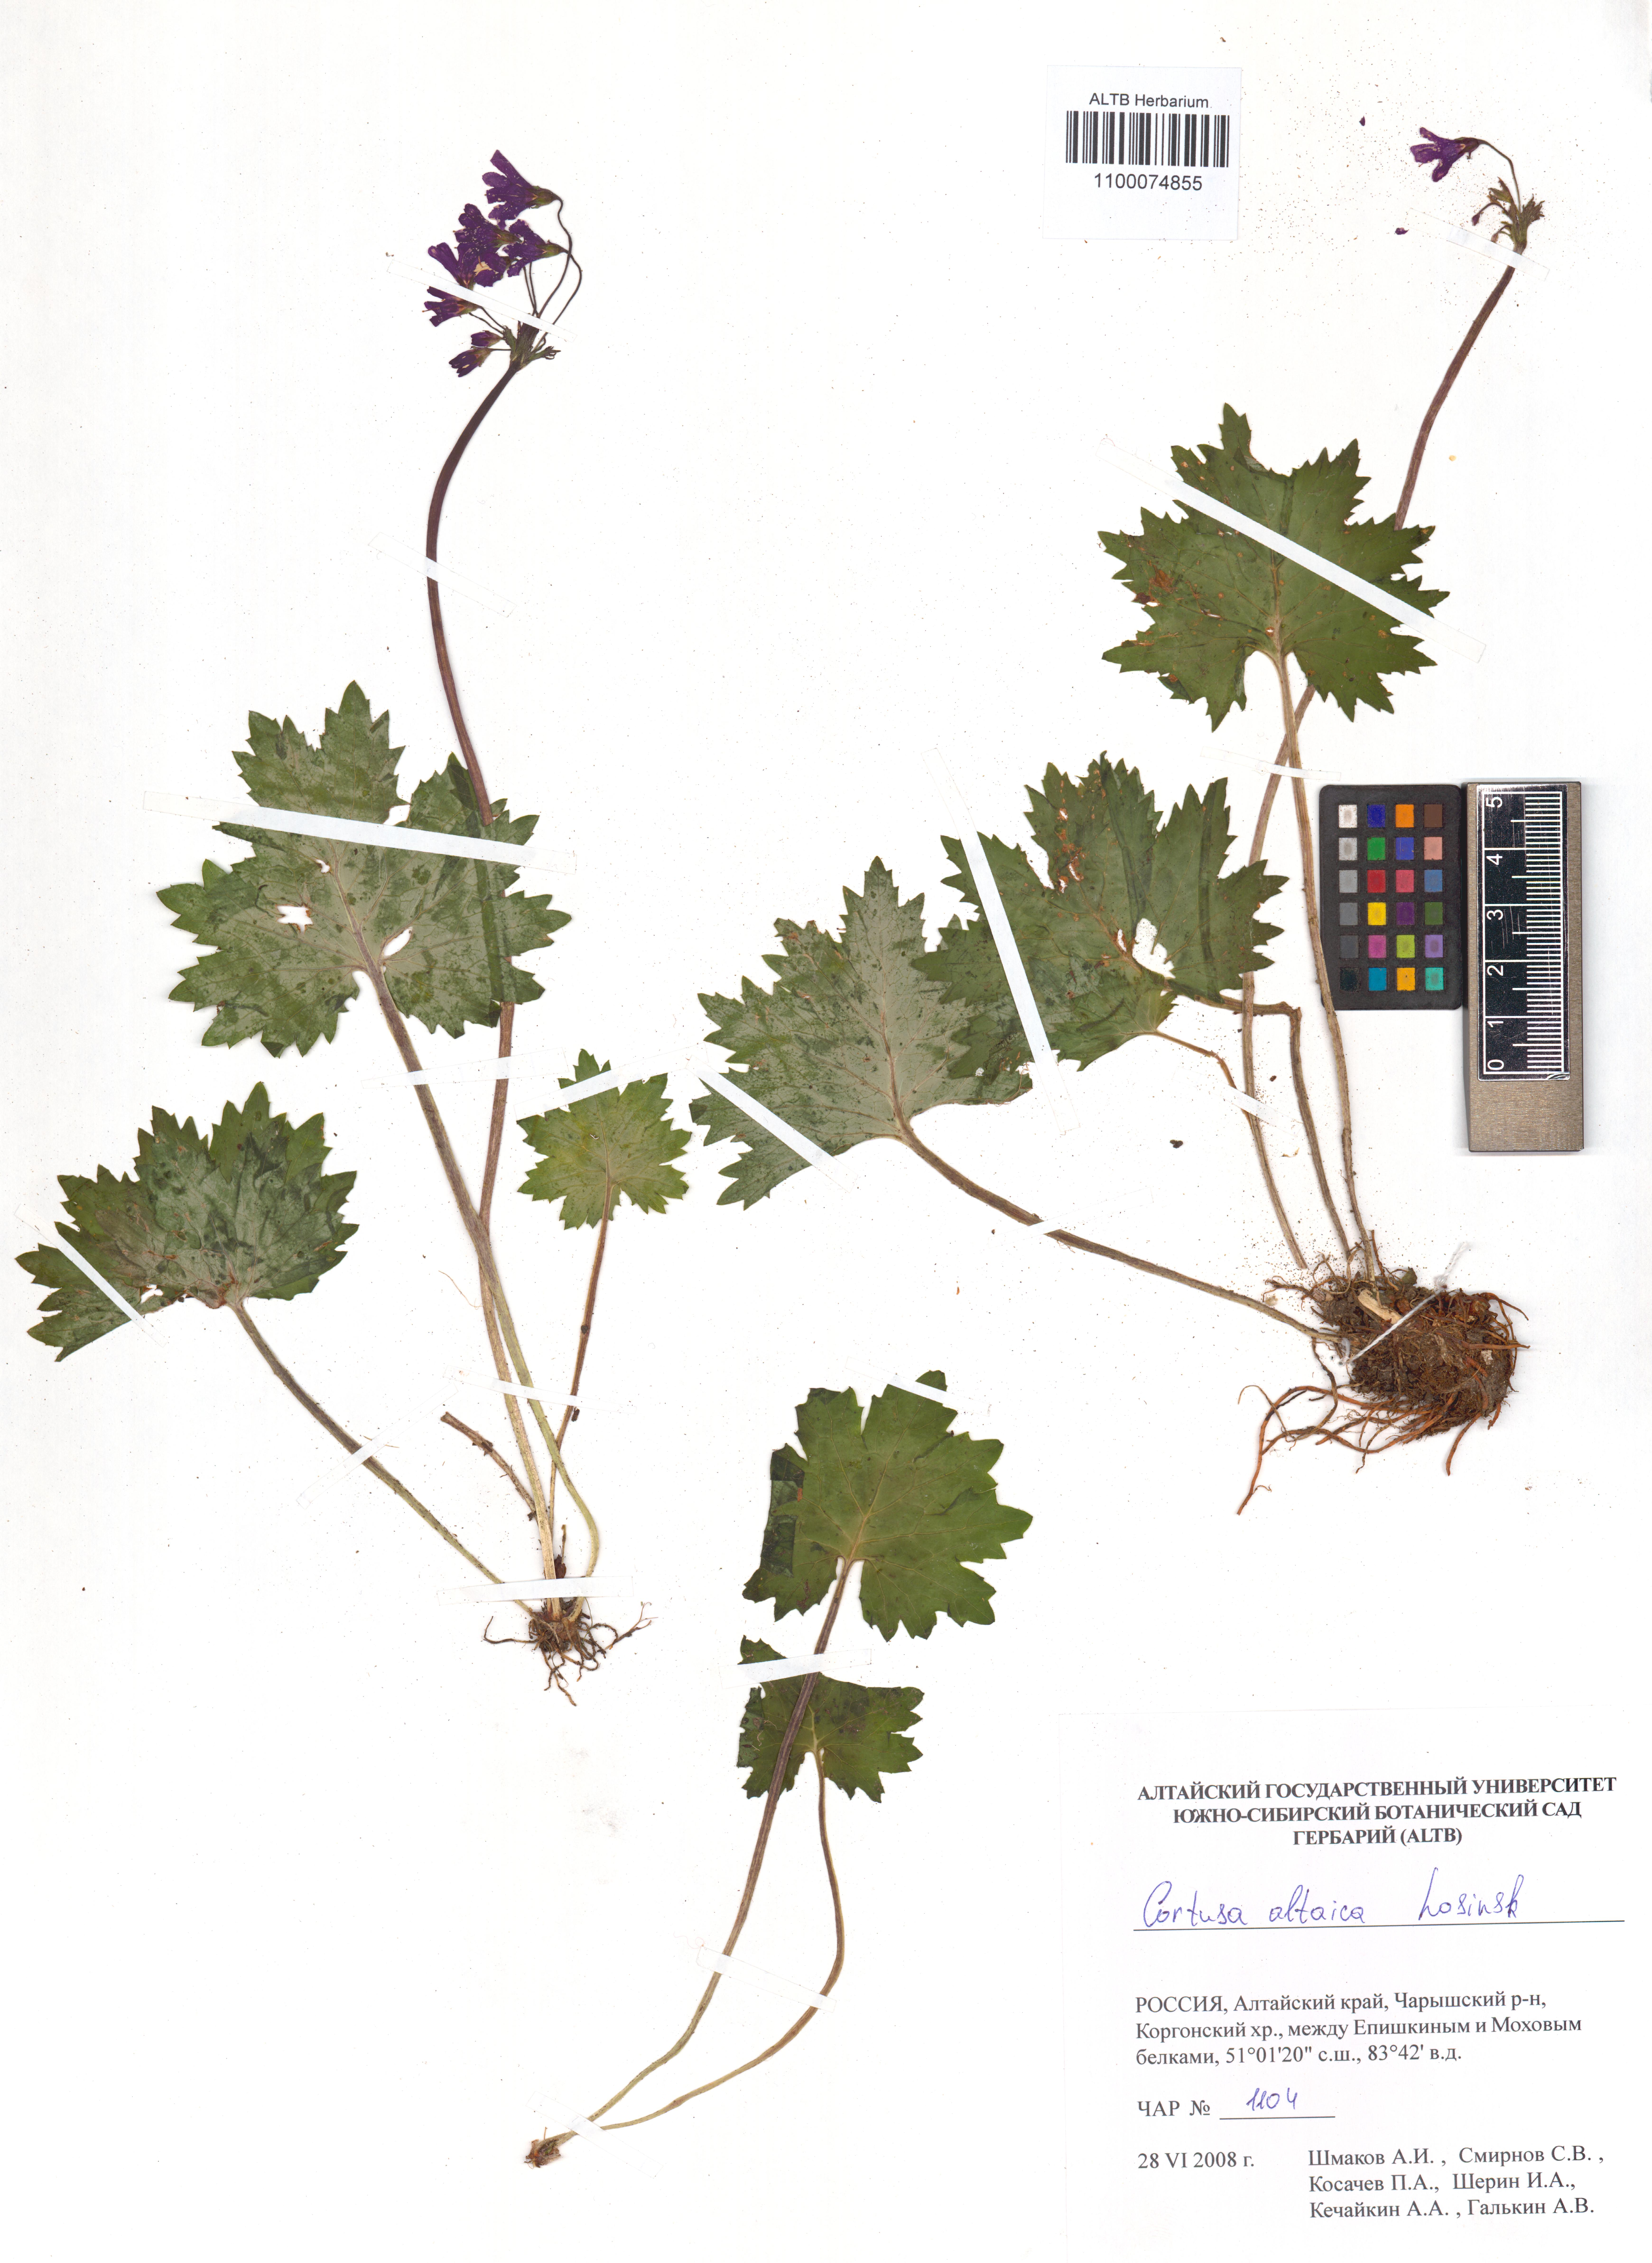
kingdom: Plantae
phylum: Tracheophyta
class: Magnoliopsida
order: Ericales
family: Primulaceae
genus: Primula
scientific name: Primula matthioli
